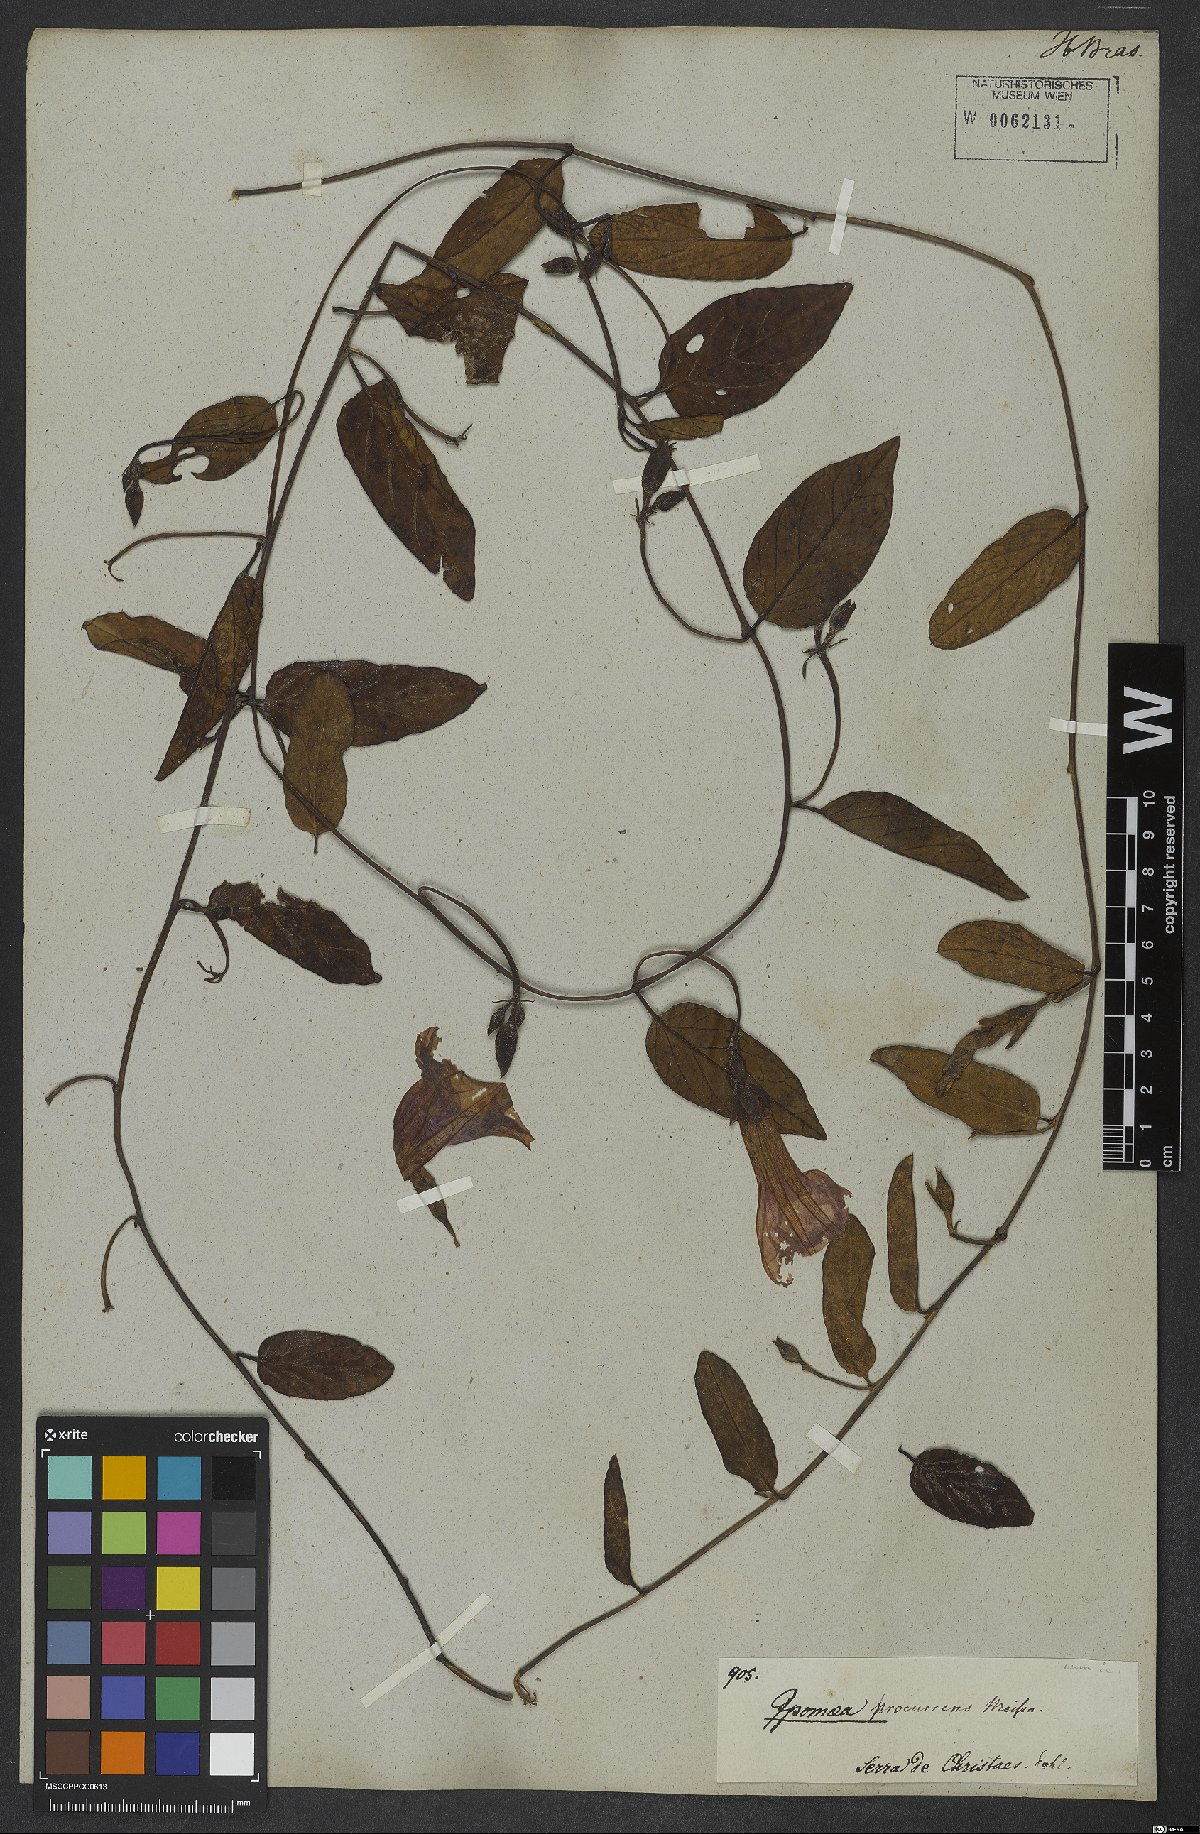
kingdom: Plantae
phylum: Tracheophyta
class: Magnoliopsida
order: Solanales
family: Convolvulaceae
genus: Ipomoea
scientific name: Ipomoea procurrens
